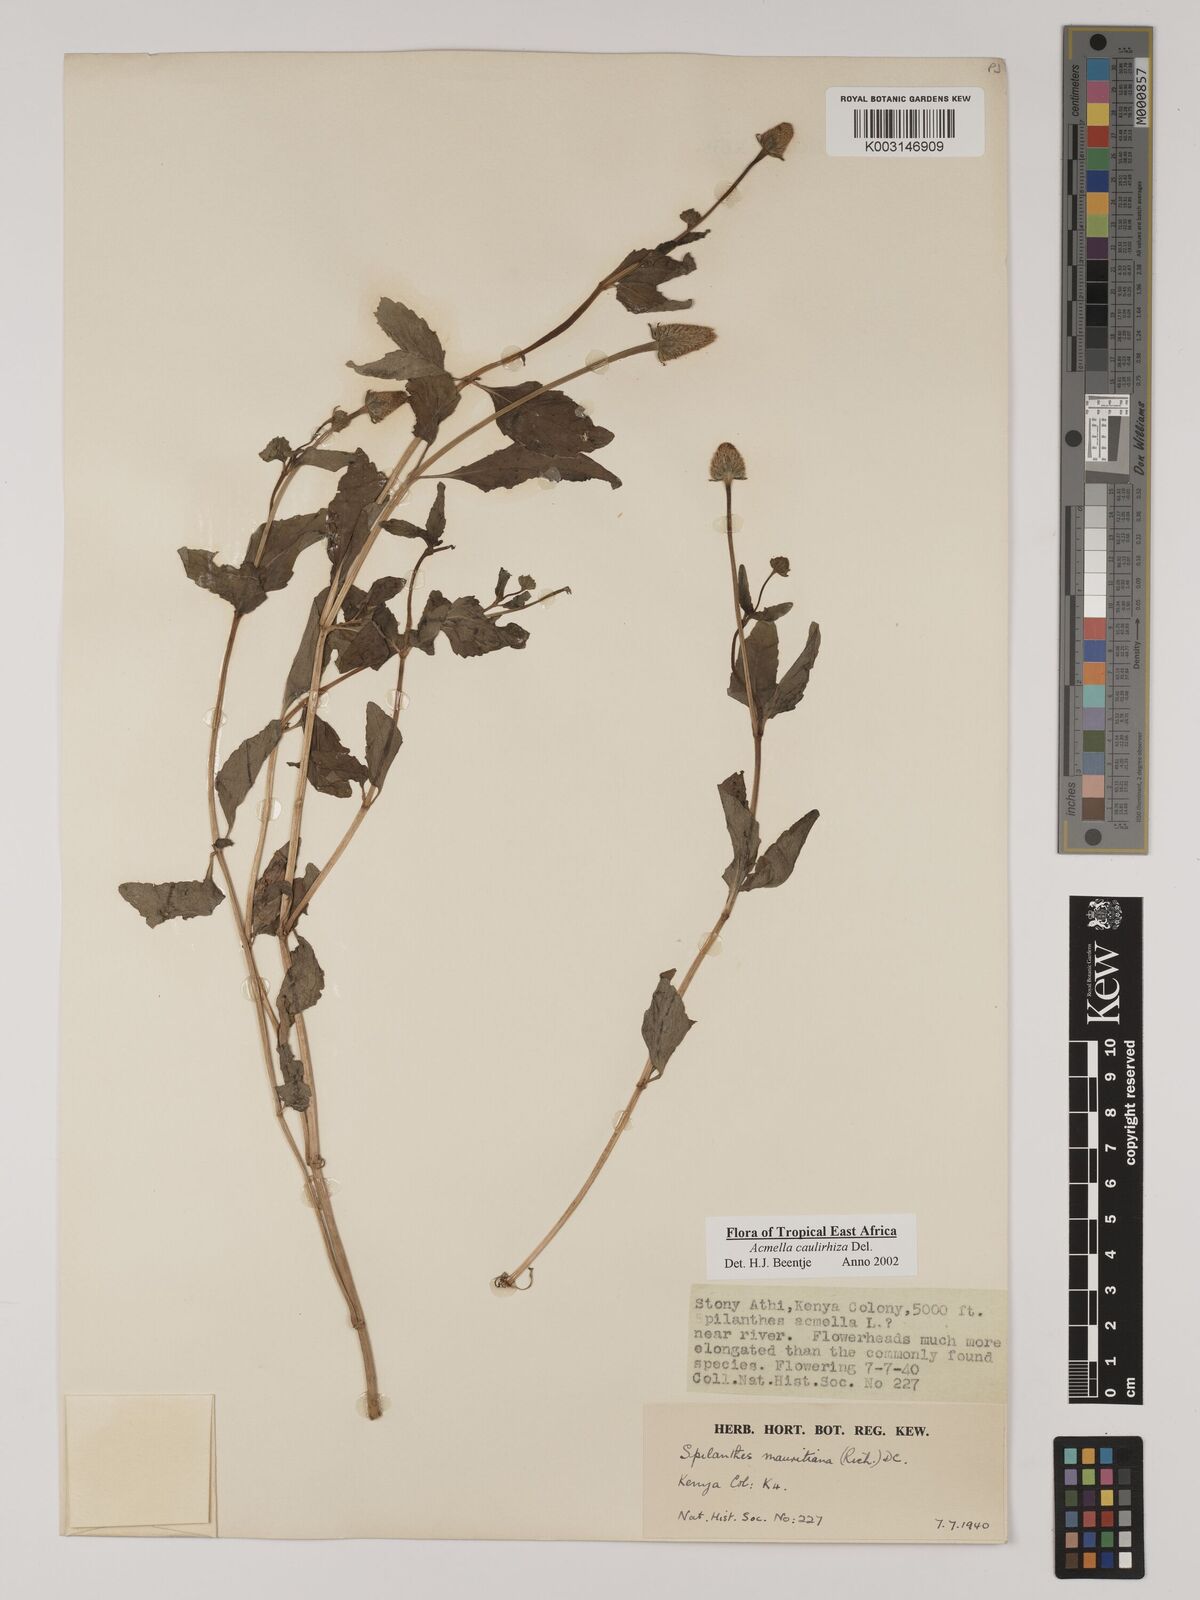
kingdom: Plantae
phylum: Tracheophyta
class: Magnoliopsida
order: Asterales
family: Asteraceae
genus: Acmella
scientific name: Acmella caulirhiza
